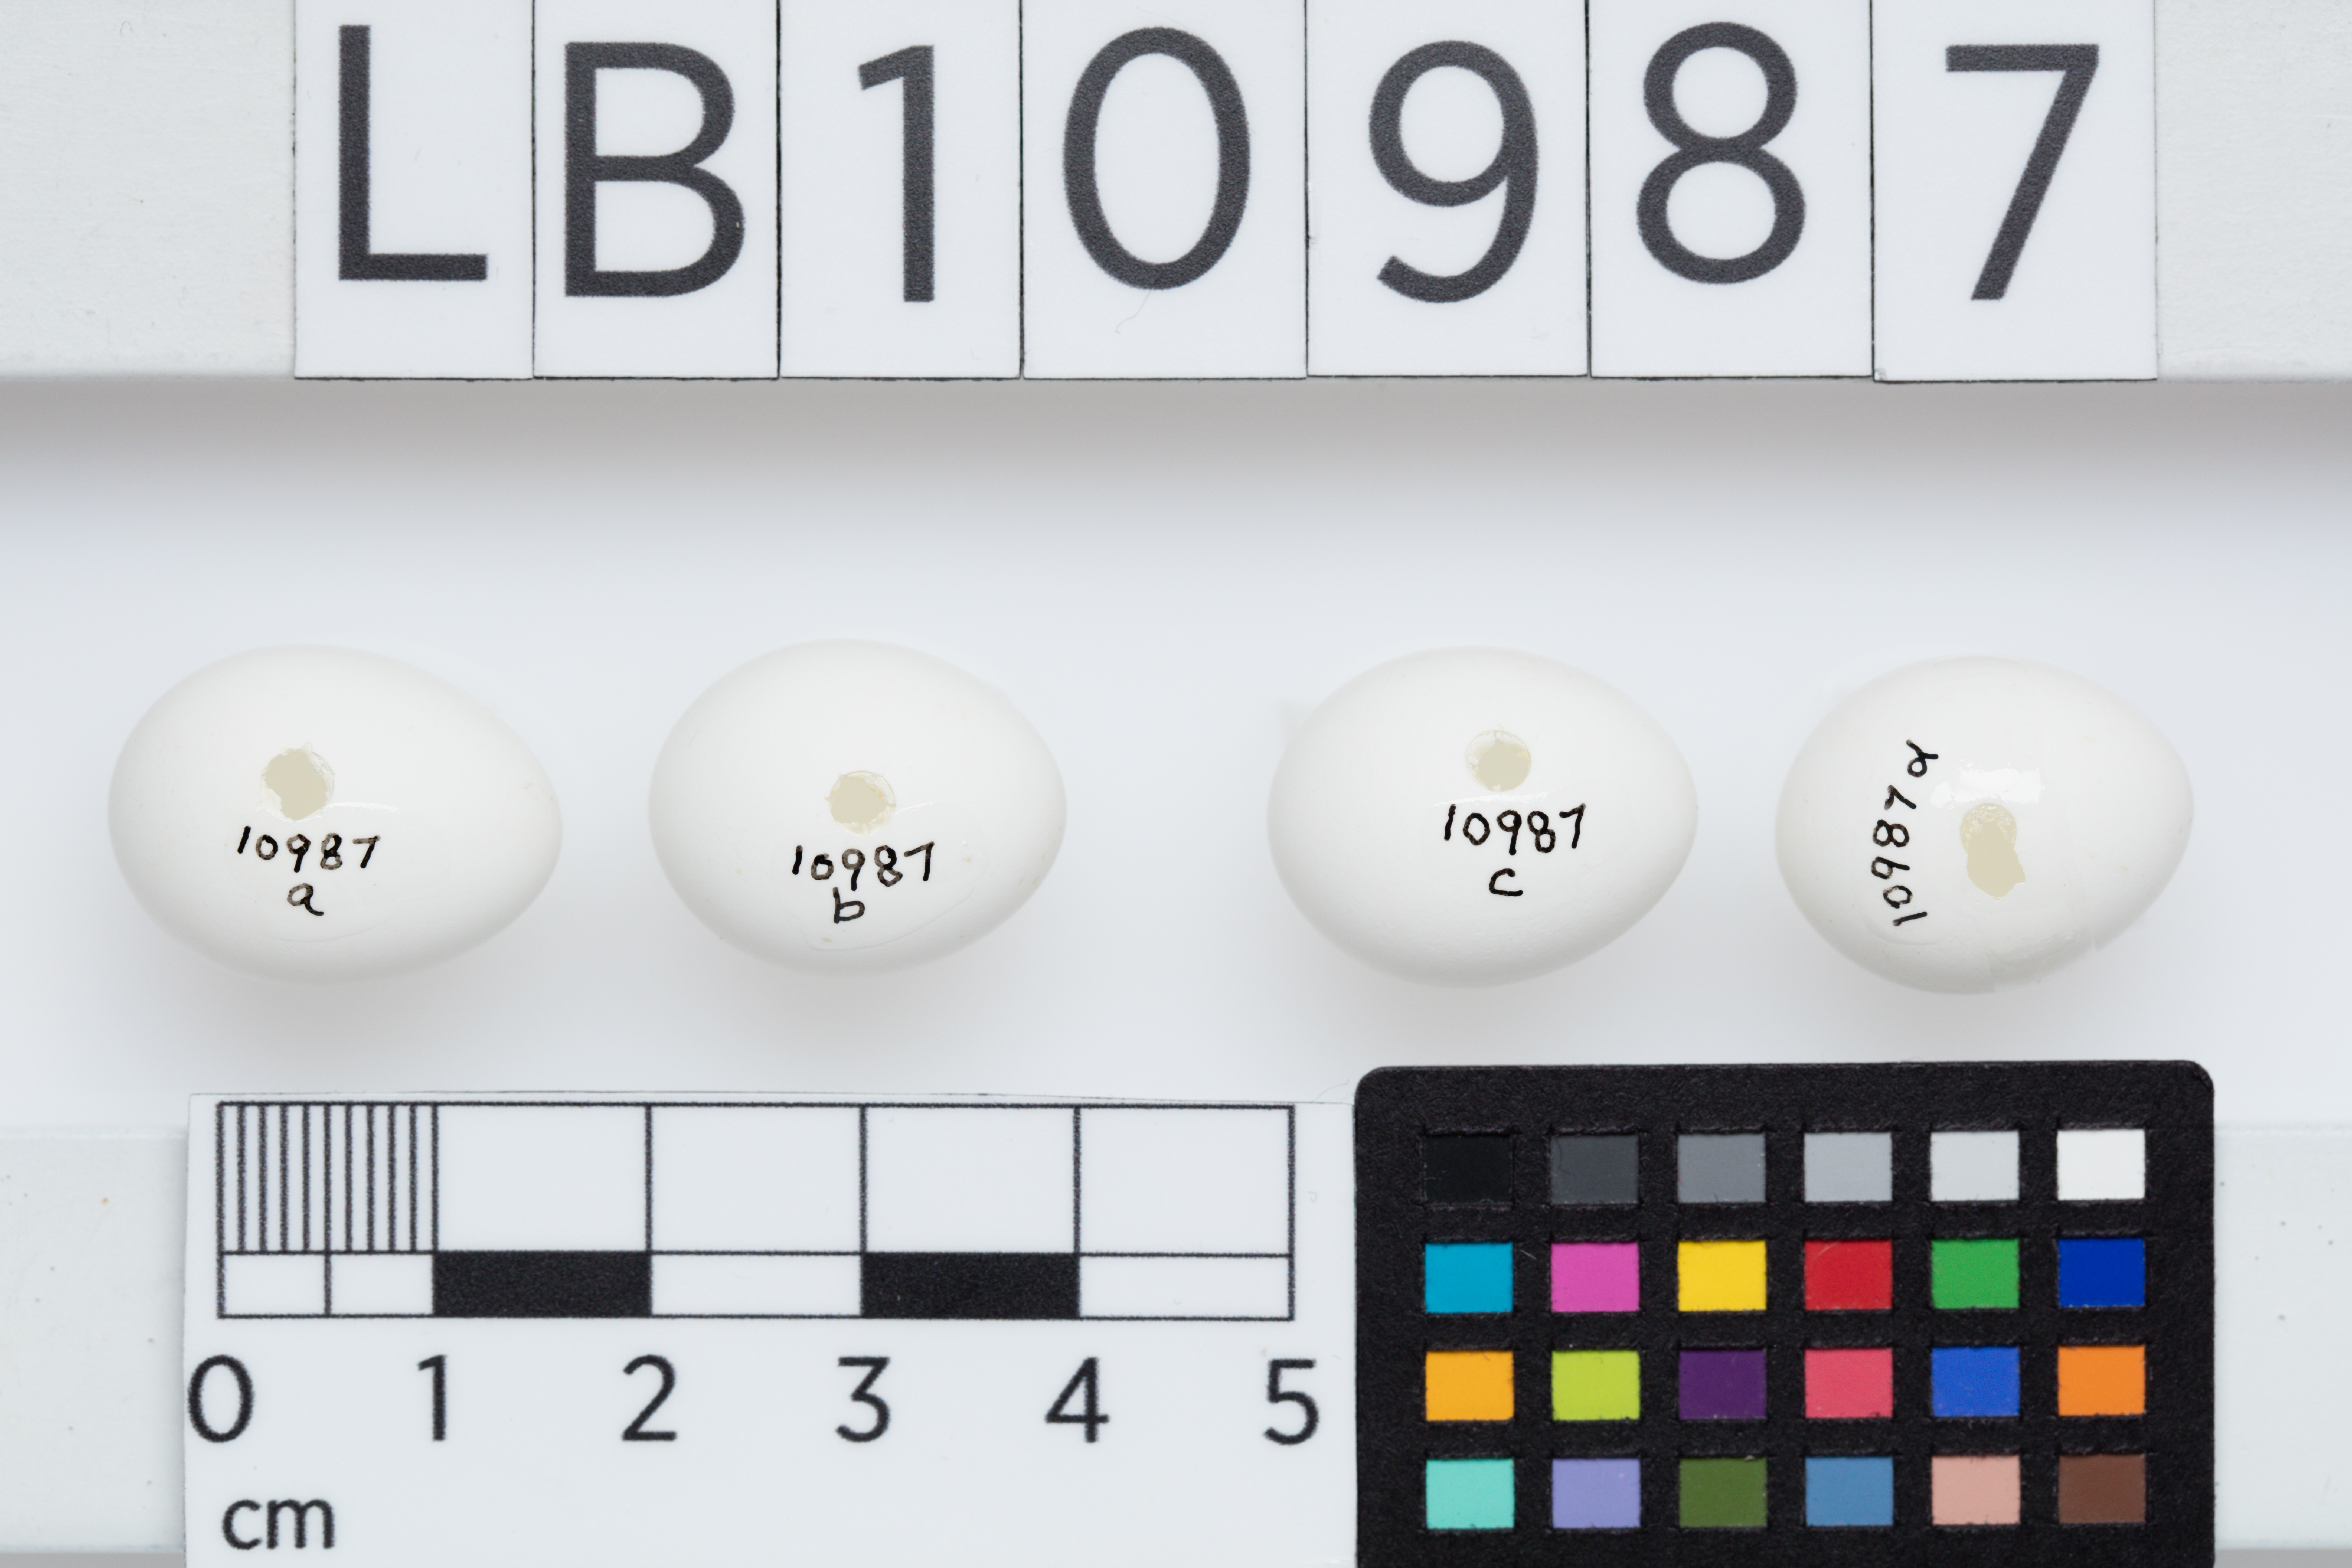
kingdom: Animalia
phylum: Chordata
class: Aves
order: Passeriformes
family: Notiomystidae
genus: Notiomystis
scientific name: Notiomystis cincta
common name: Stitchbird
